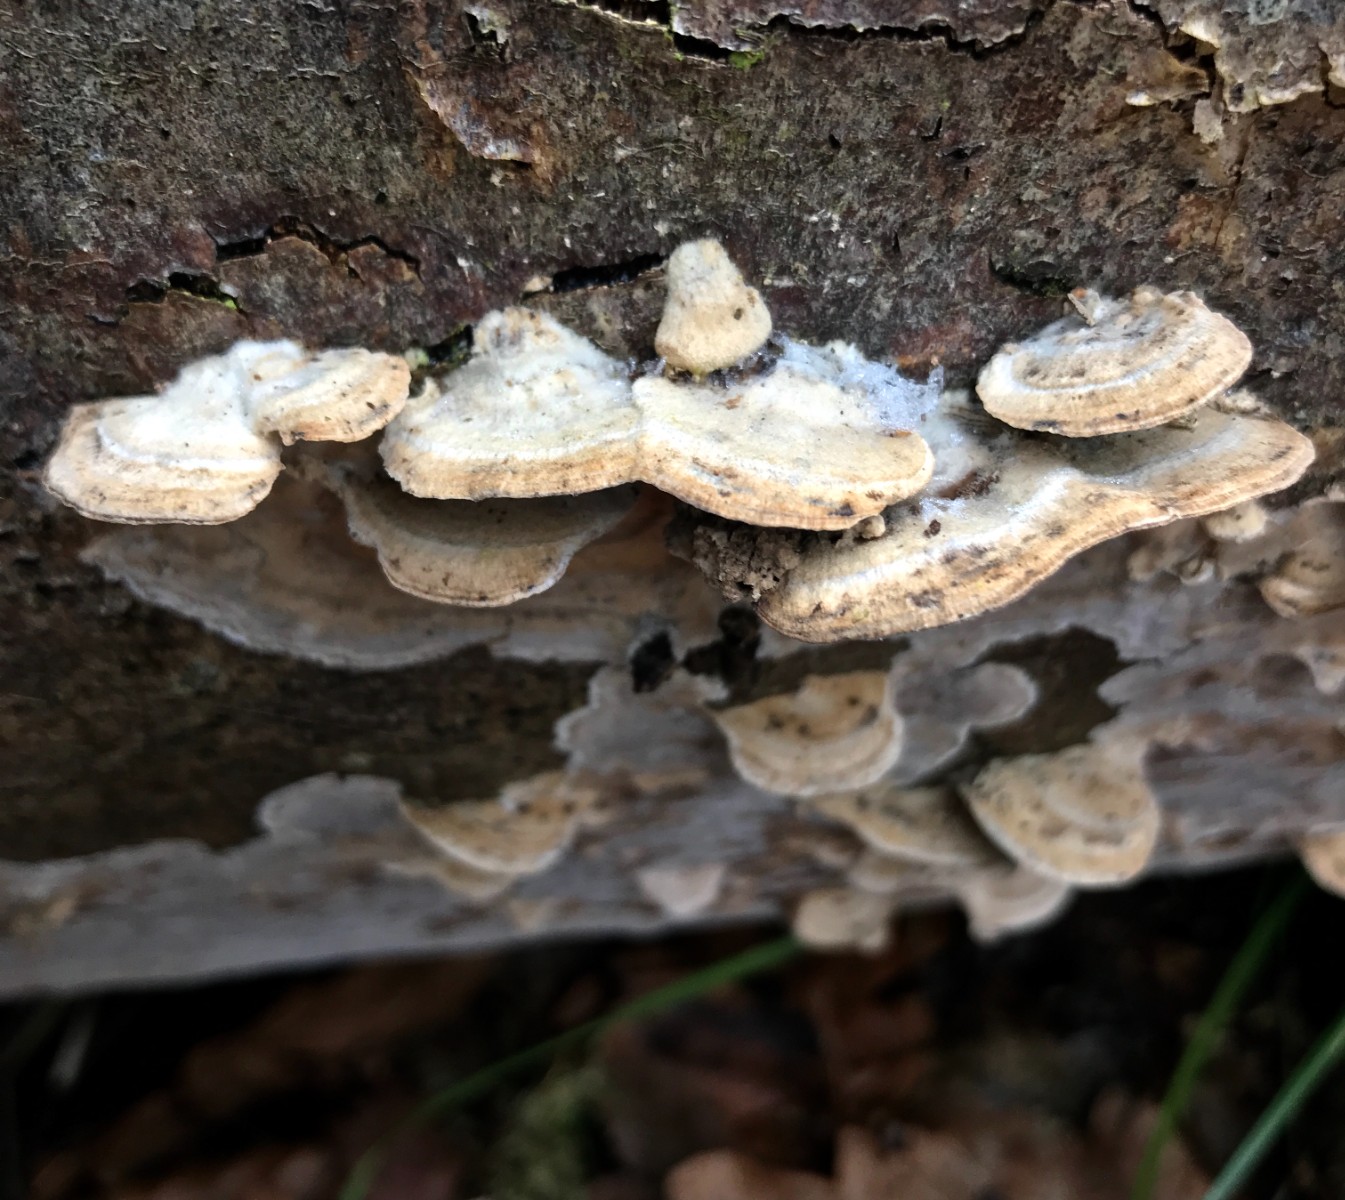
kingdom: Fungi
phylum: Basidiomycota
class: Agaricomycetes
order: Polyporales
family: Phanerochaetaceae
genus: Bjerkandera
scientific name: Bjerkandera adusta
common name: sveden sodporesvamp
